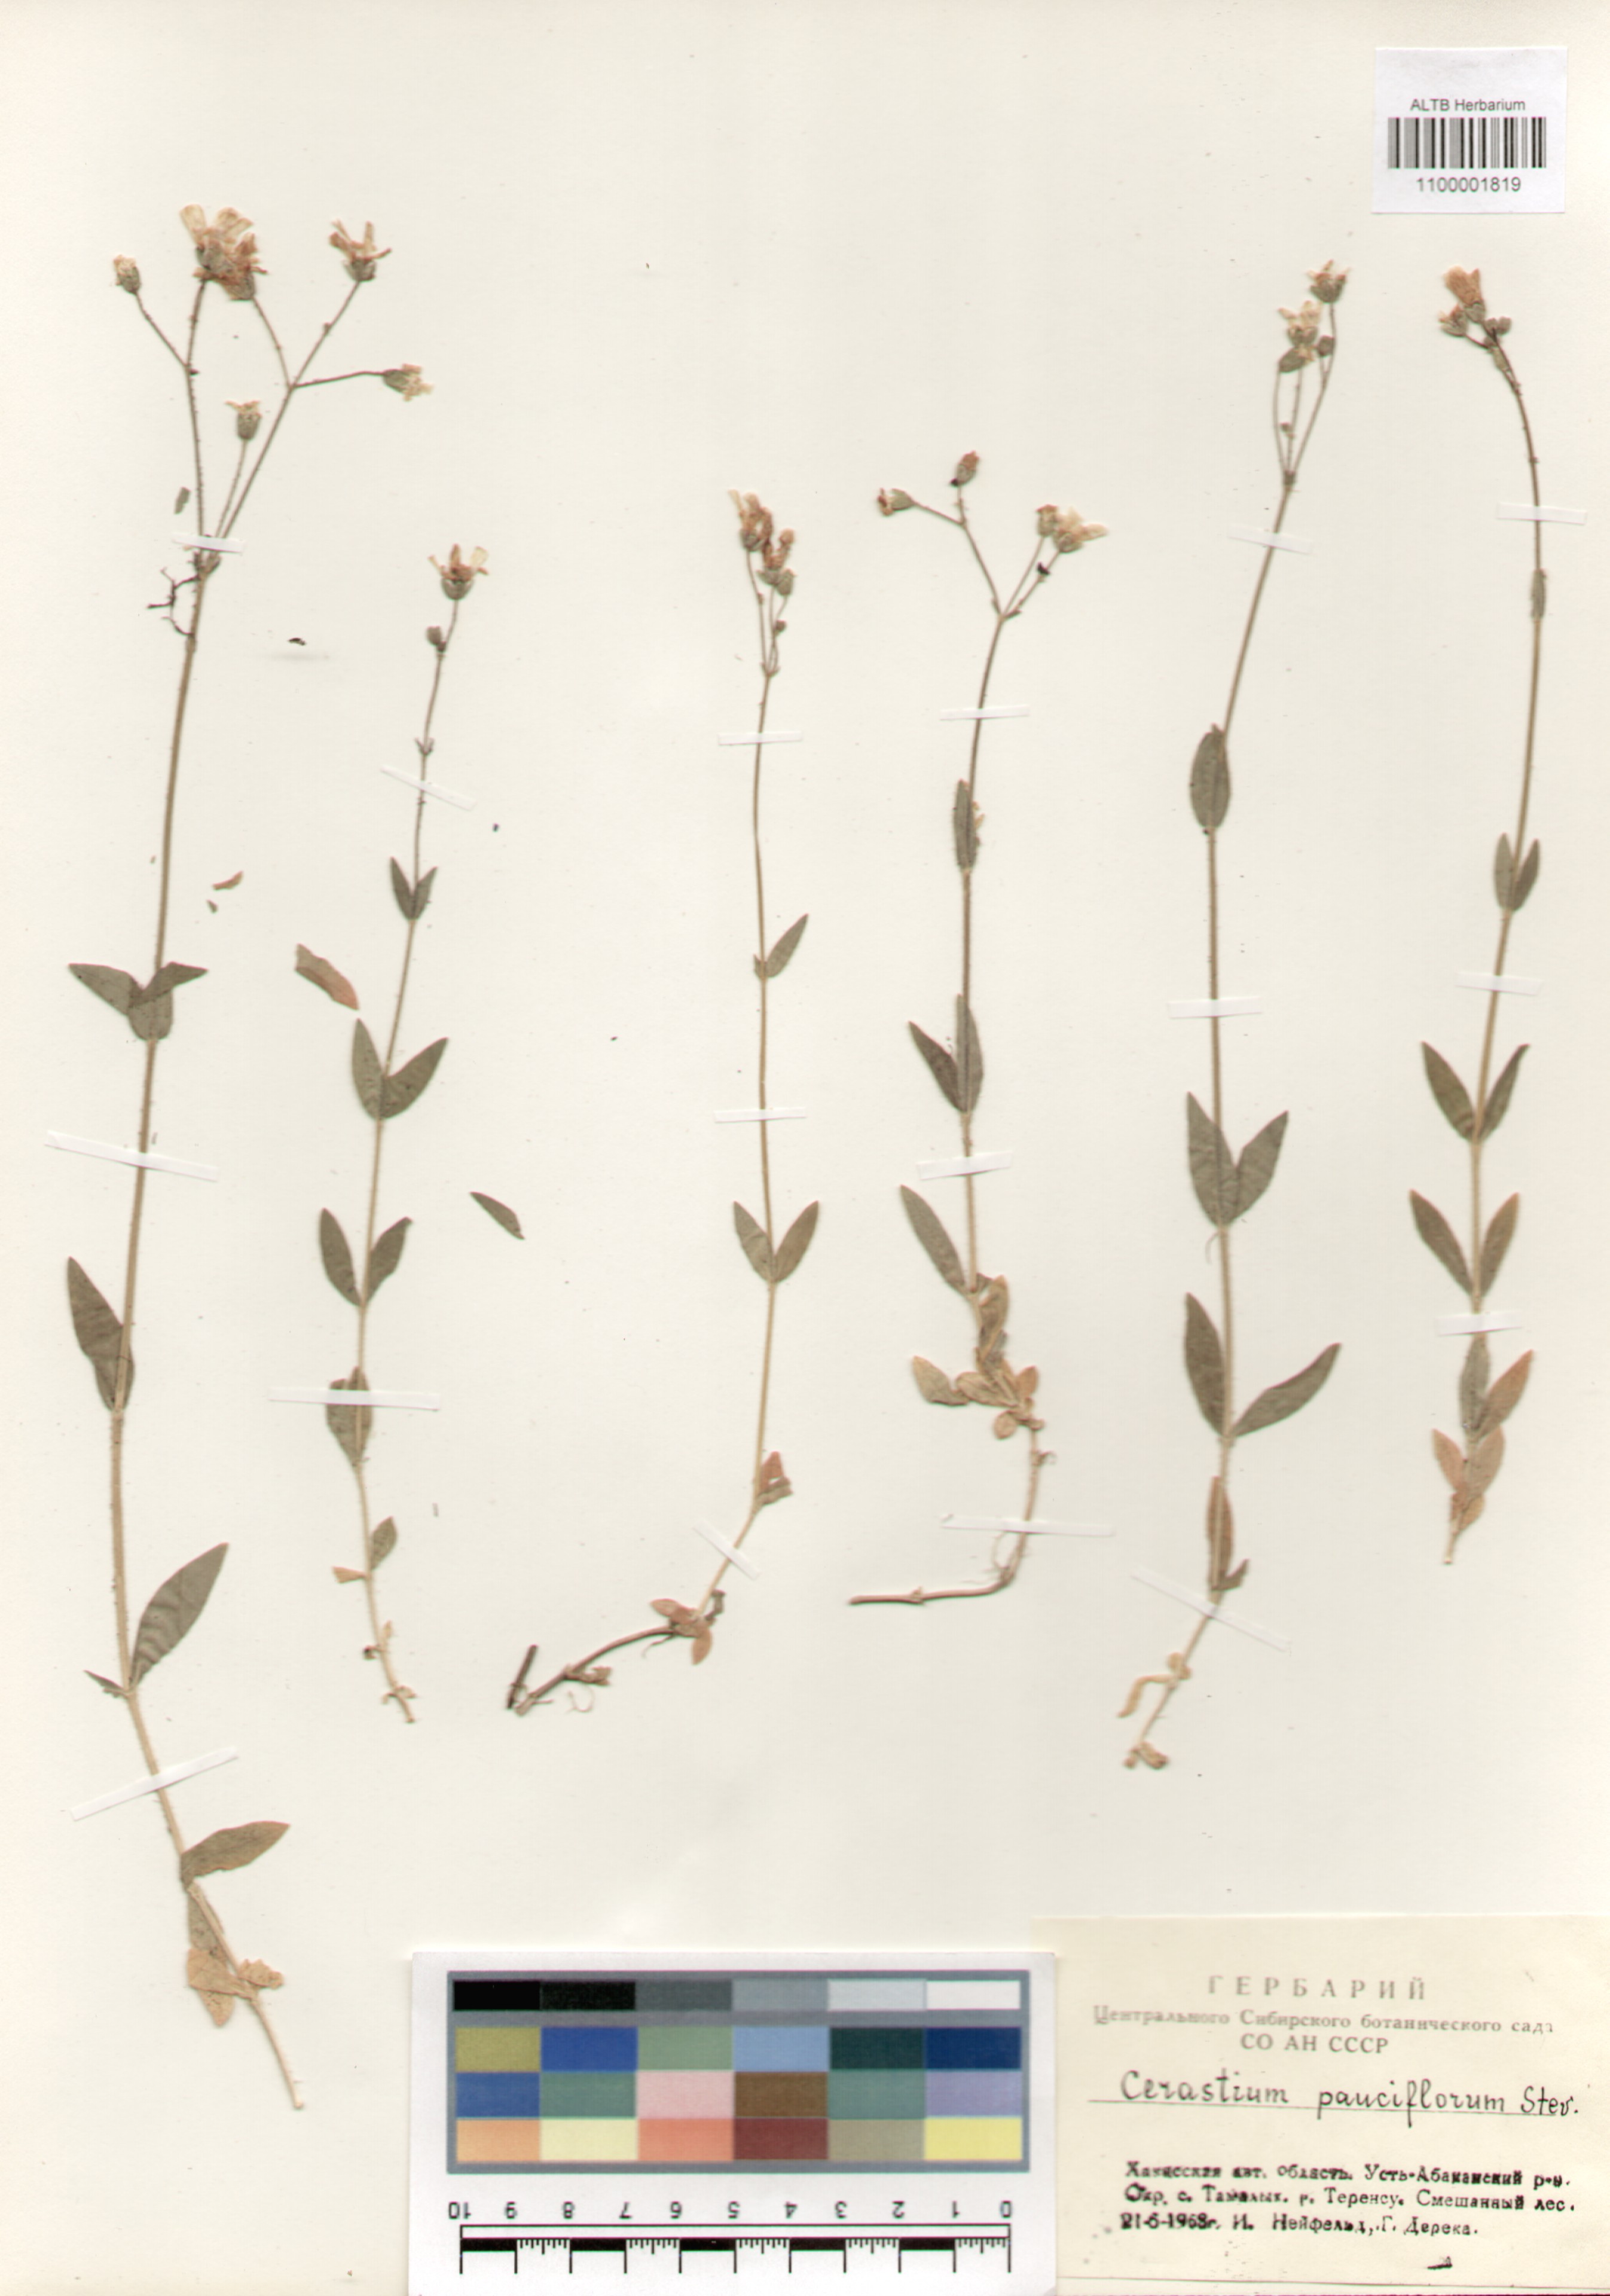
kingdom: Plantae
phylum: Tracheophyta
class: Magnoliopsida
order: Caryophyllales
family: Caryophyllaceae
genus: Cerastium
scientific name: Cerastium pauciflorum
